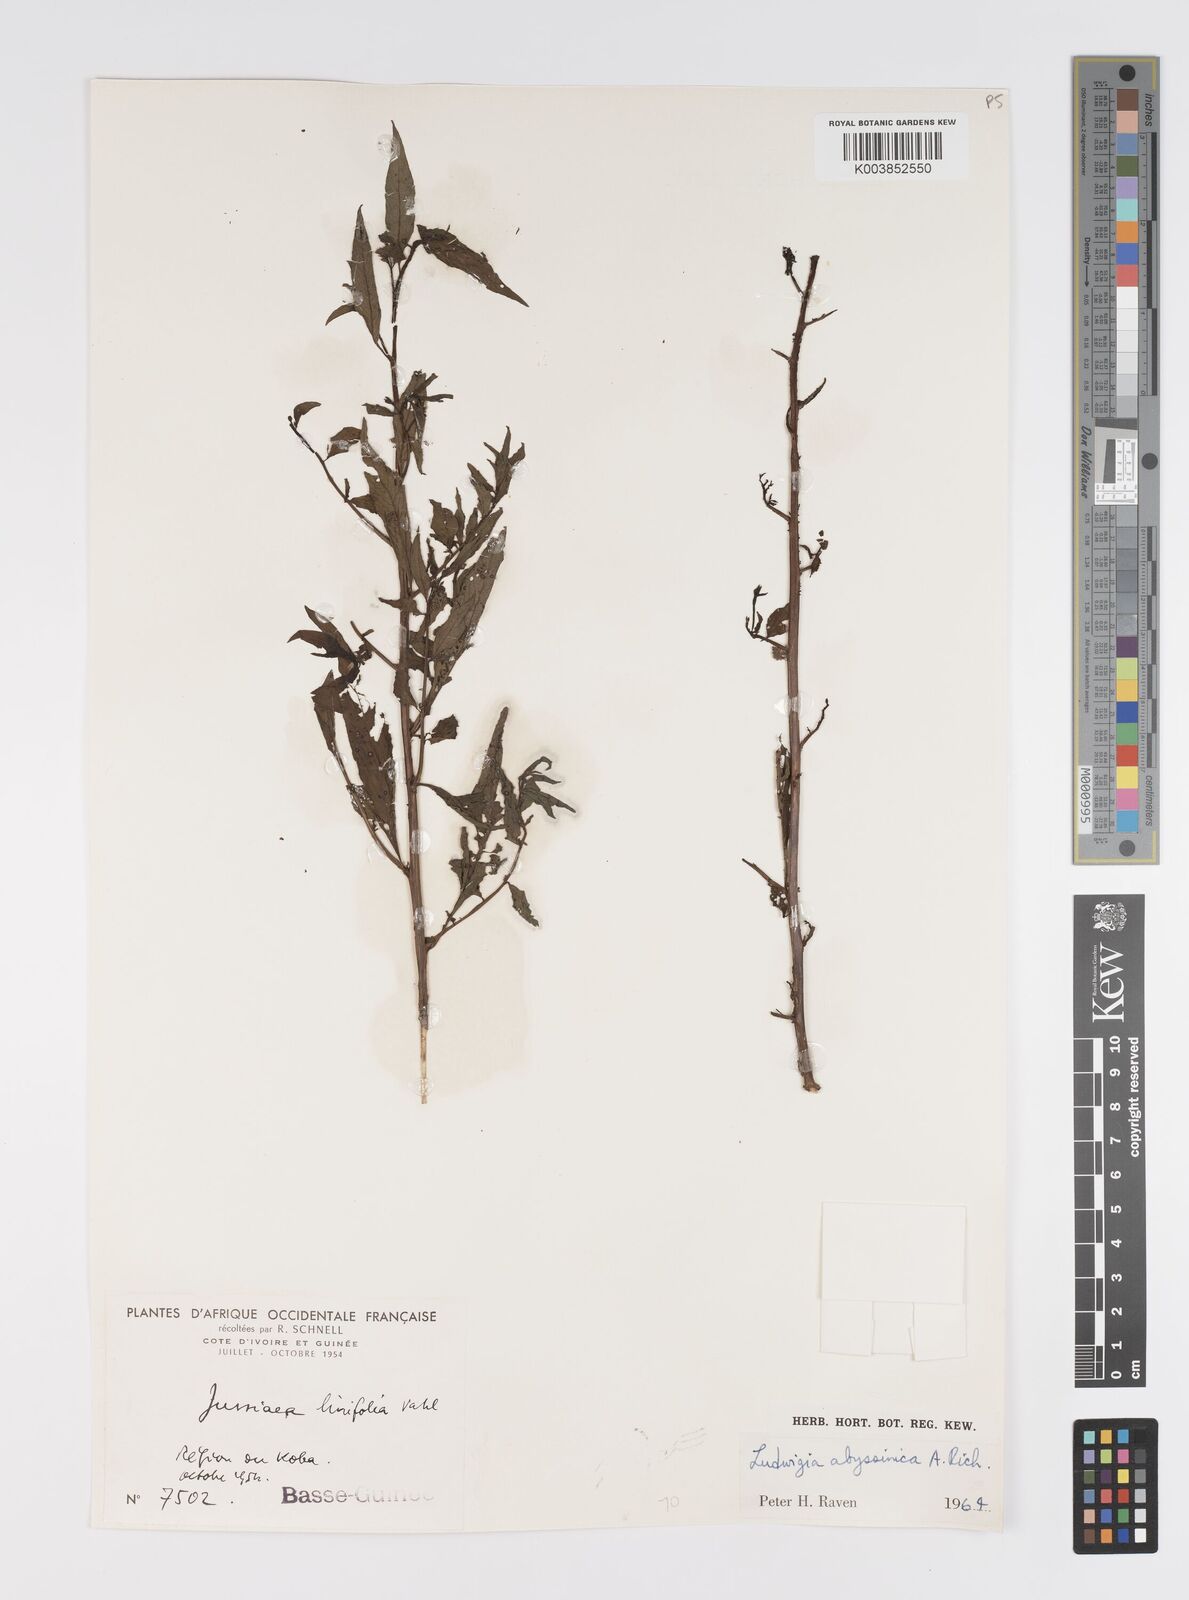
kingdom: Plantae
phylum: Tracheophyta
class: Magnoliopsida
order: Myrtales
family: Onagraceae
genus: Ludwigia
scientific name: Ludwigia abyssinica
